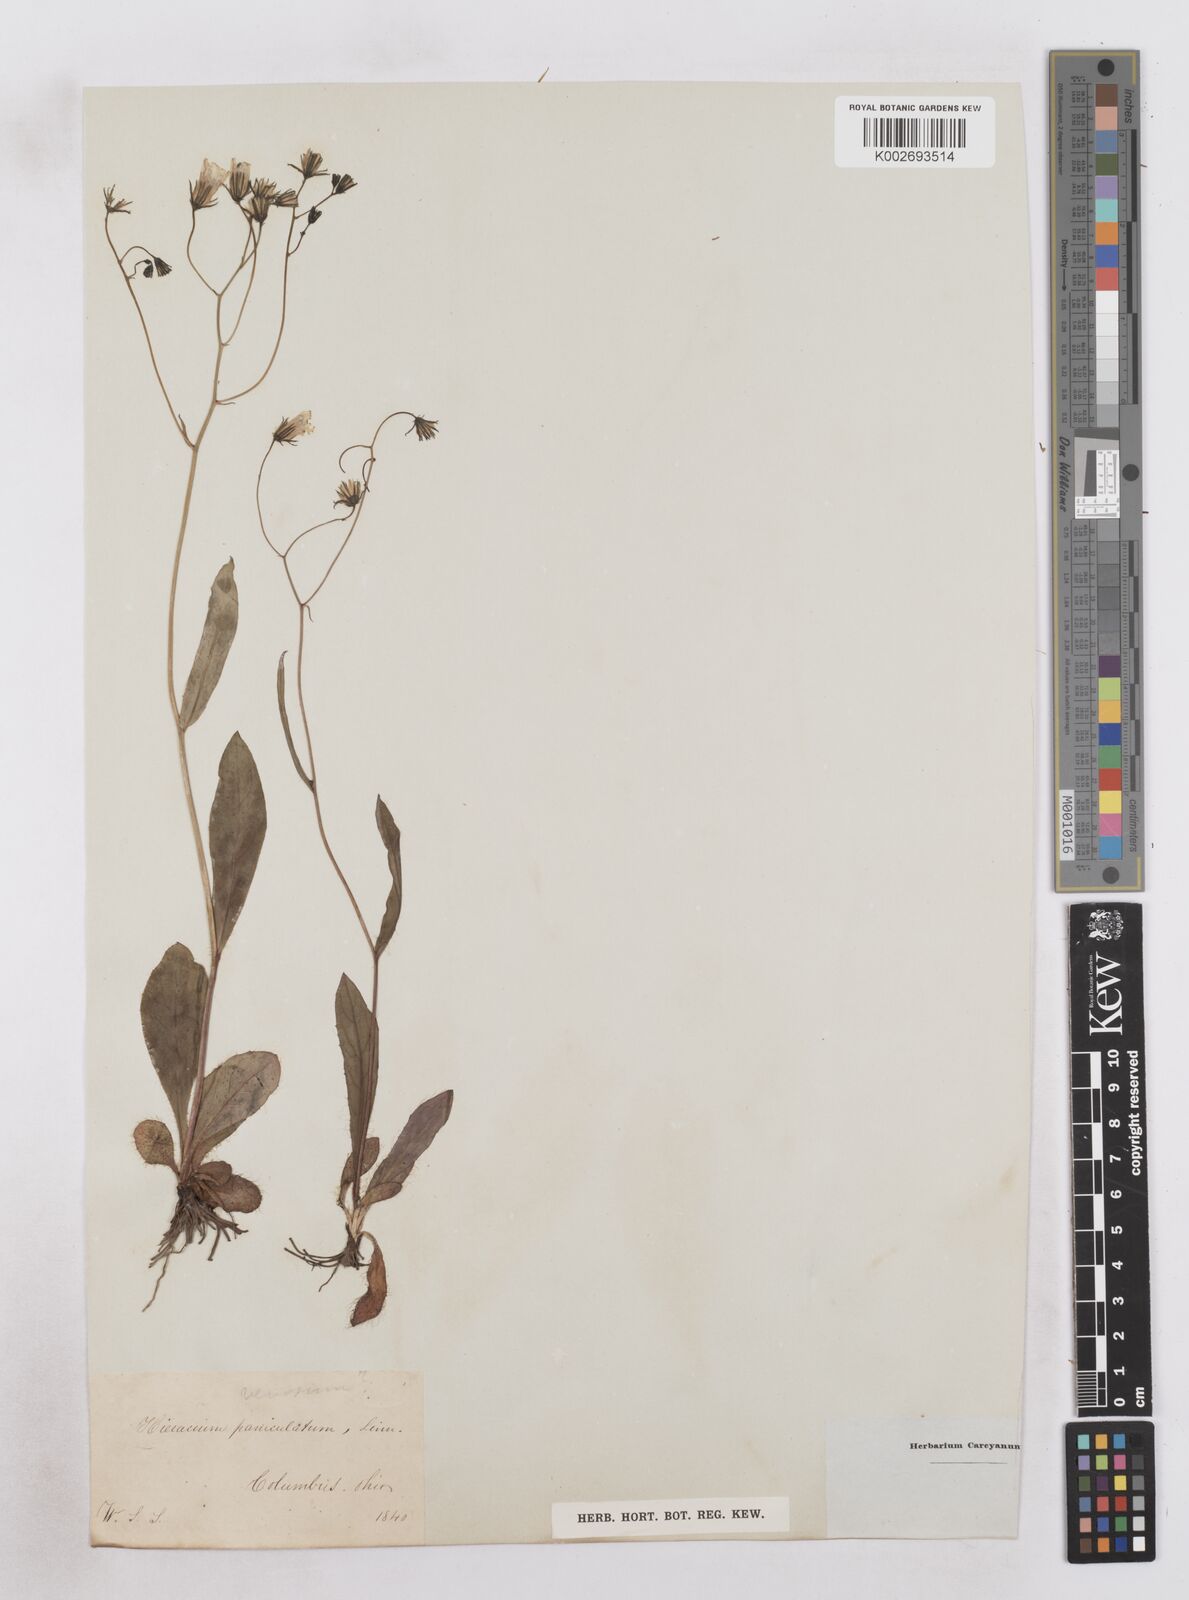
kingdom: Plantae
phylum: Tracheophyta
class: Magnoliopsida
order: Asterales
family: Asteraceae
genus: Hieracium
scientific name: Hieracium paniculatum
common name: Allegheny hawkweed
